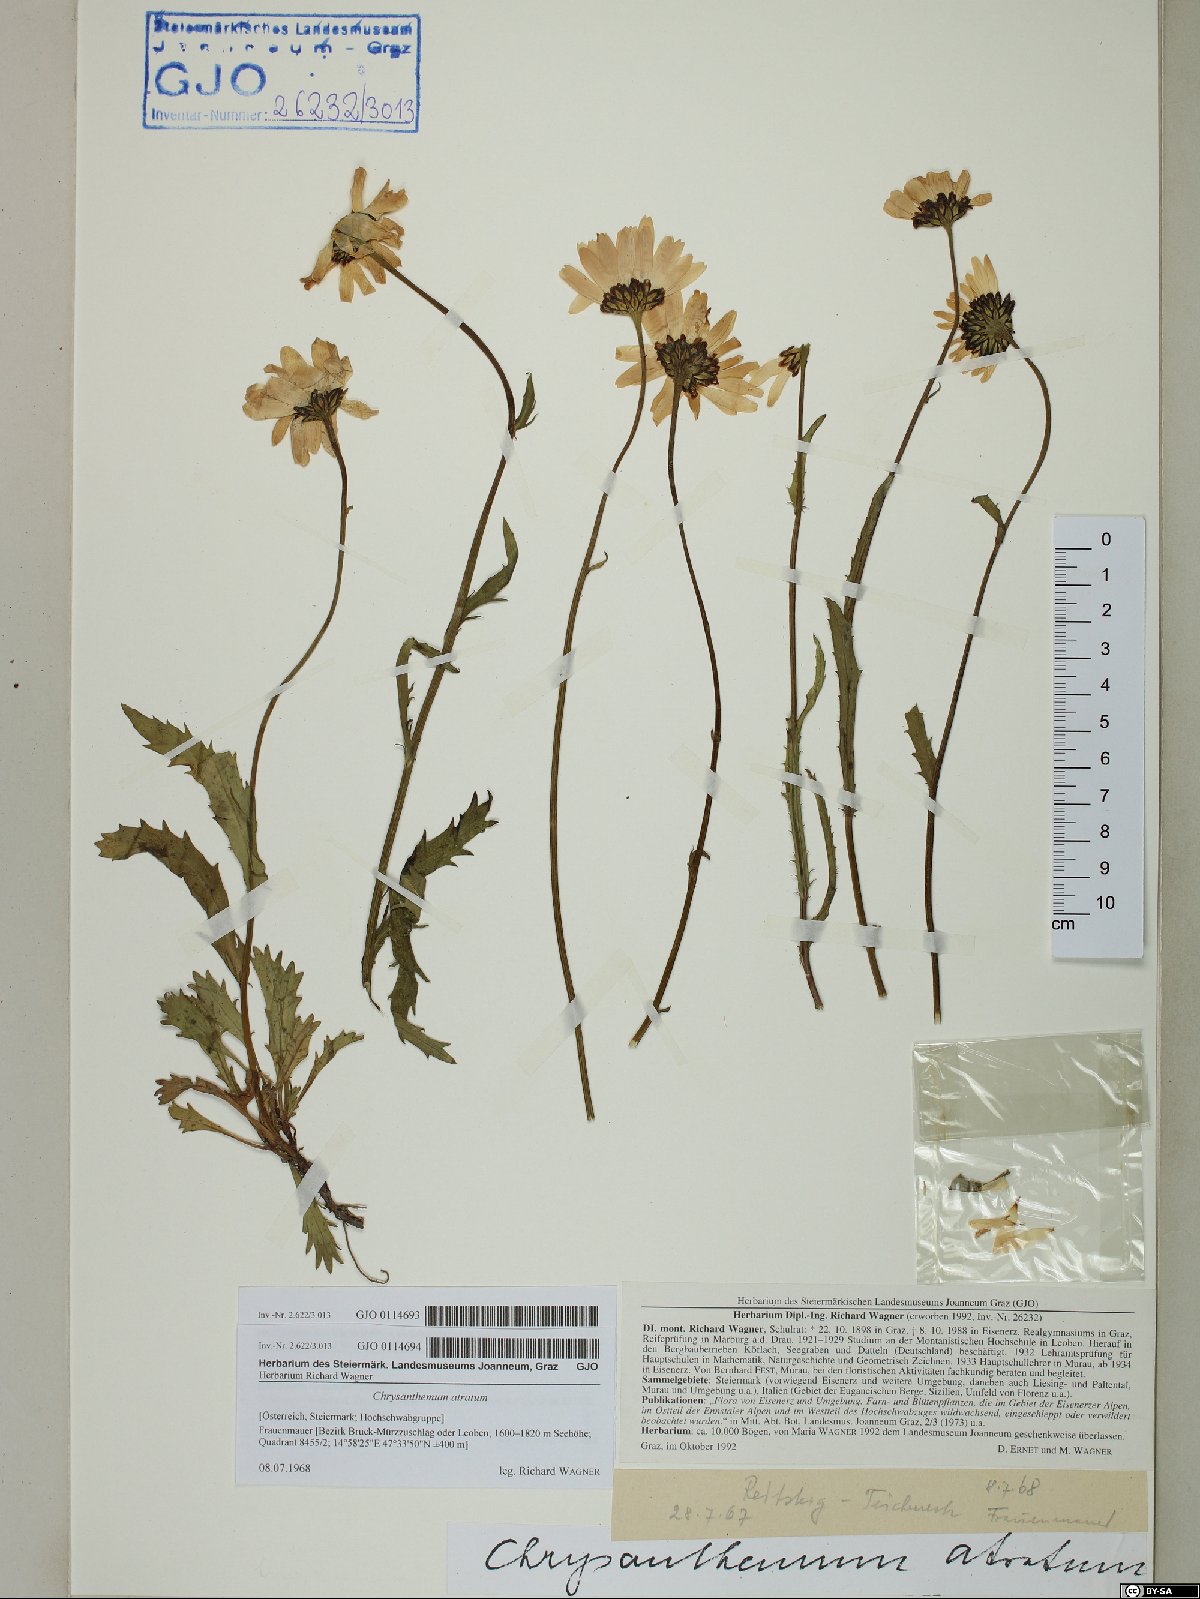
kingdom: Plantae
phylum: Tracheophyta
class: Magnoliopsida
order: Asterales
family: Asteraceae
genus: Leucanthemum
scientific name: Leucanthemum atratum
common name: Saw-leaved moon-daisy
